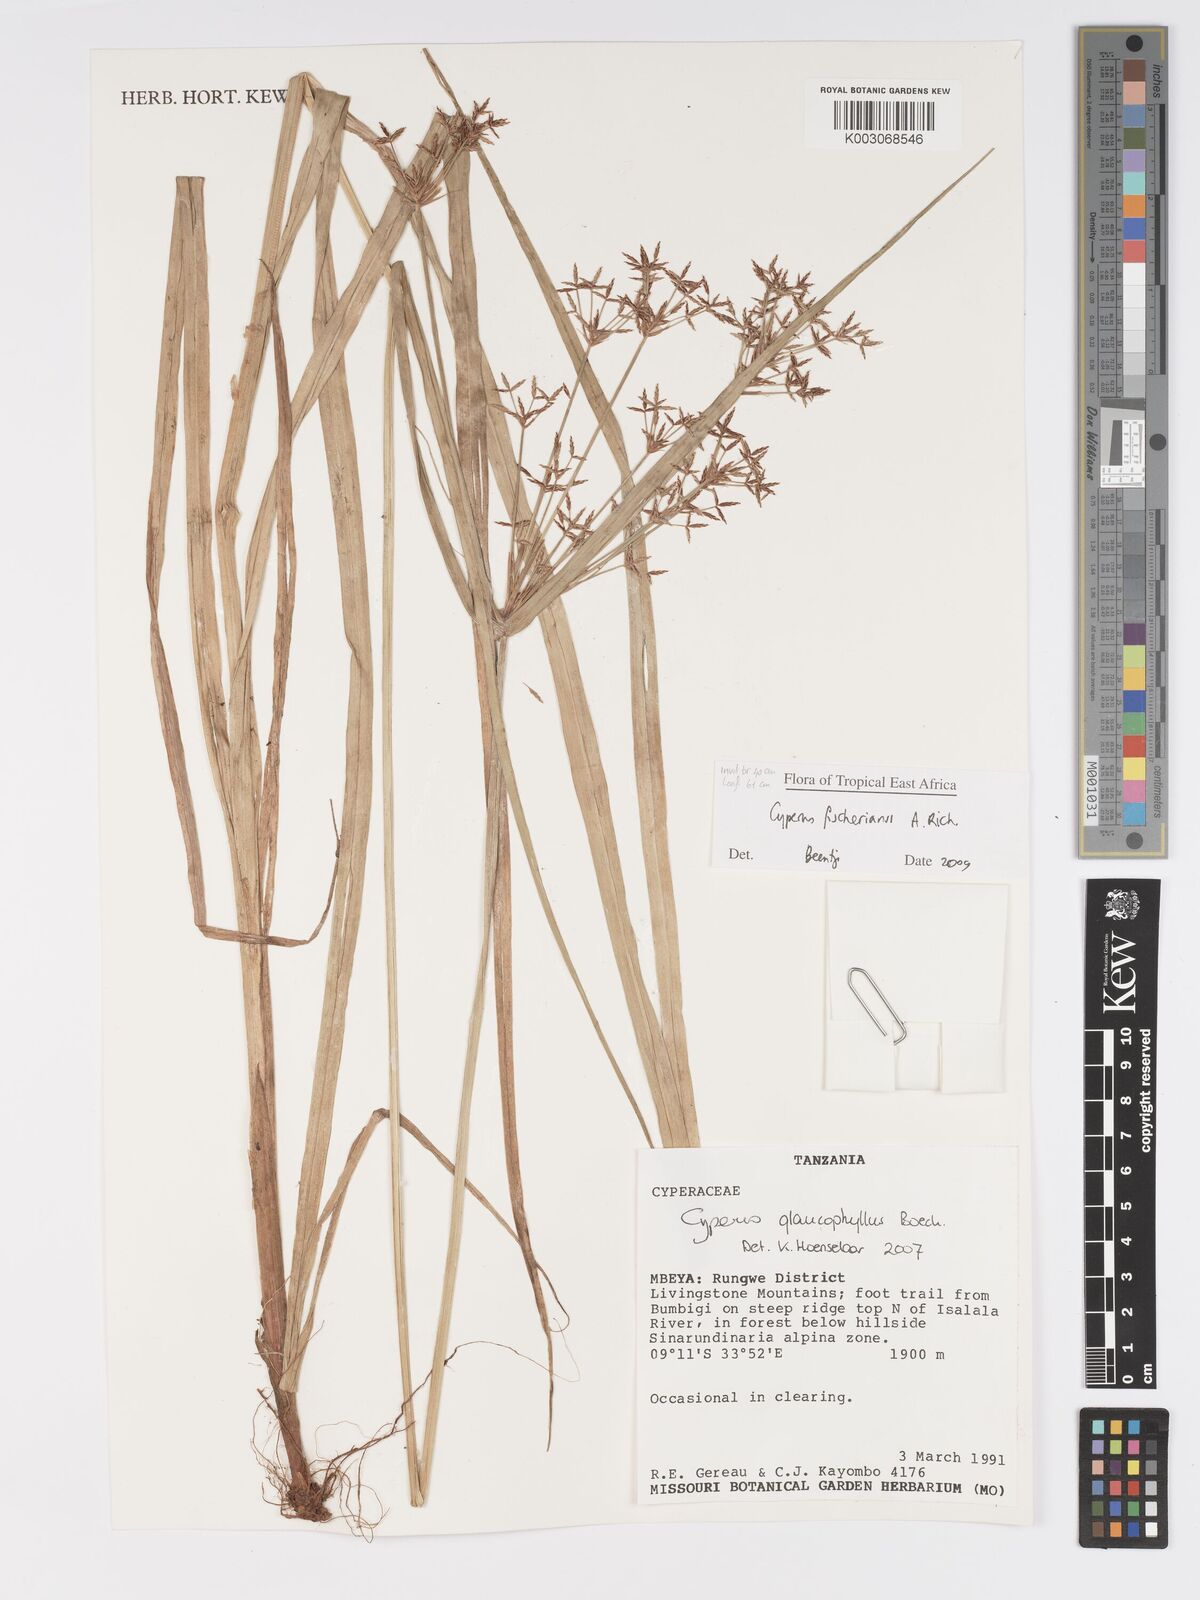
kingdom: Plantae
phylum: Tracheophyta
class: Liliopsida
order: Poales
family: Cyperaceae
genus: Cyperus
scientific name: Cyperus fischerianus
